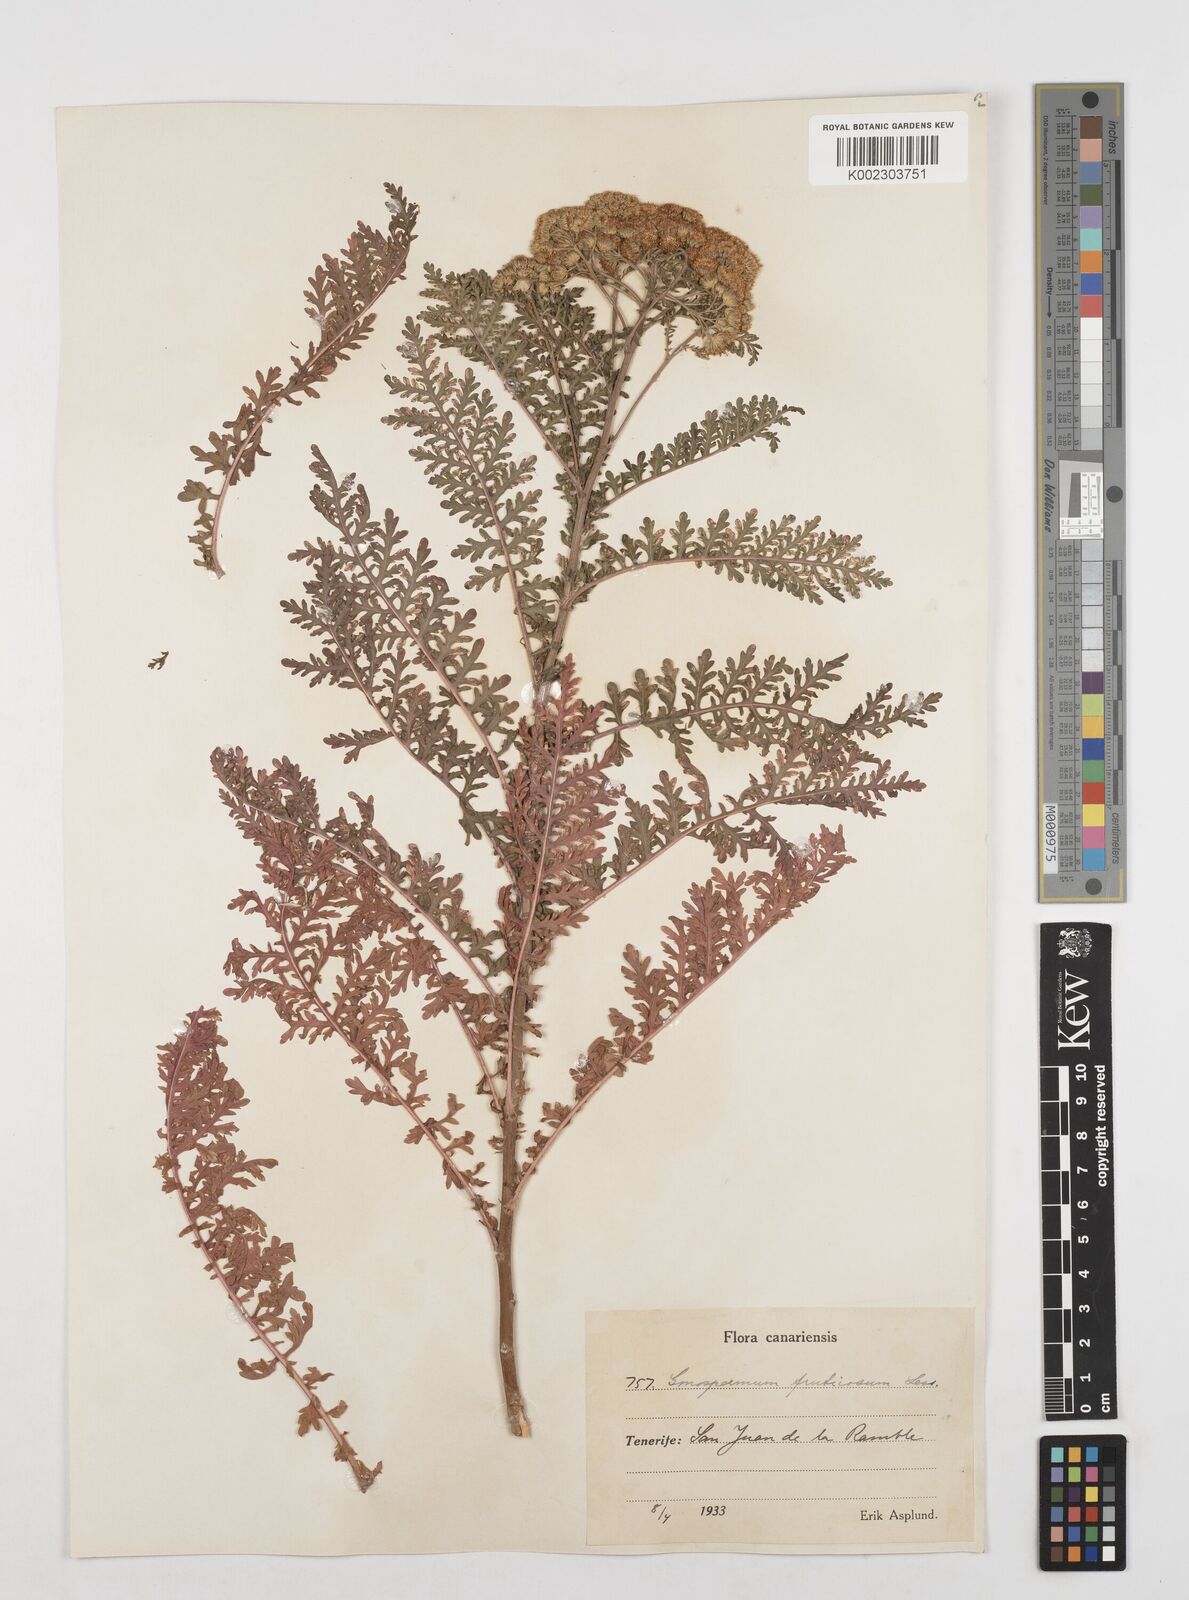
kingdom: Plantae
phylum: Tracheophyta
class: Magnoliopsida
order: Asterales
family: Asteraceae
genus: Gonospermum
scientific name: Gonospermum fruticosum
